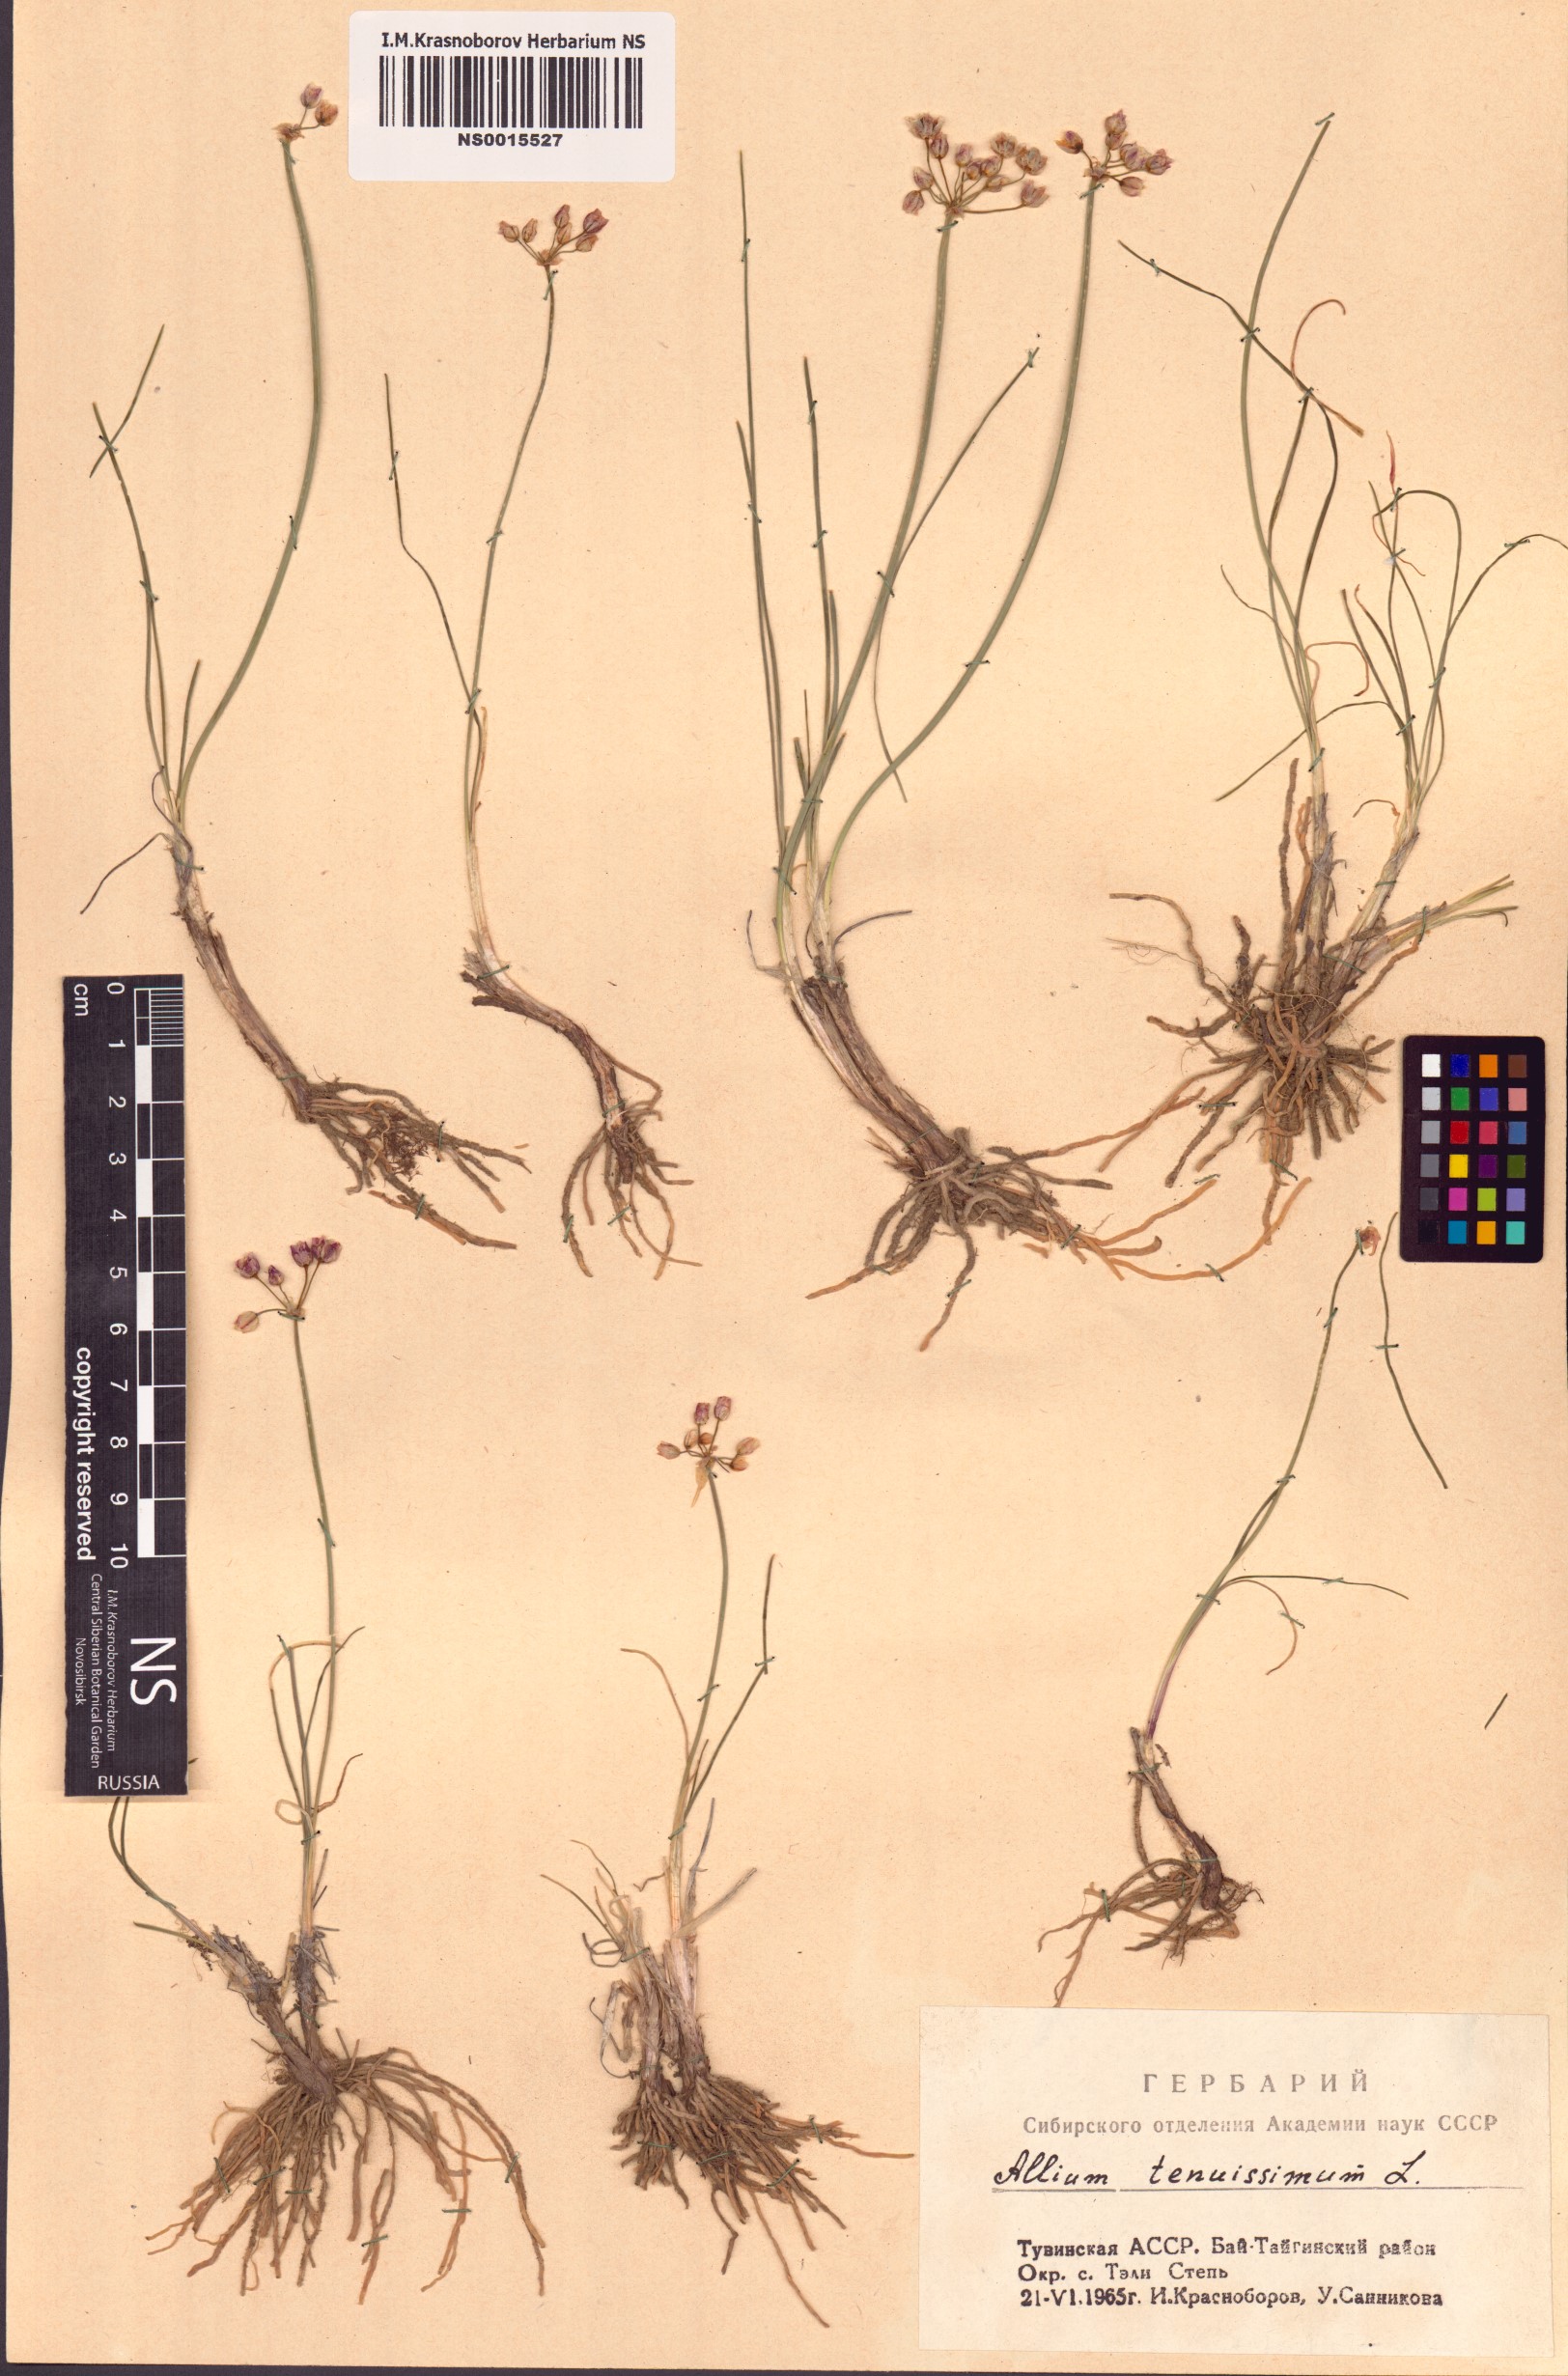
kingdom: Plantae
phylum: Tracheophyta
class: Liliopsida
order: Asparagales
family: Amaryllidaceae
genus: Allium
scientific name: Allium tenuissimum
